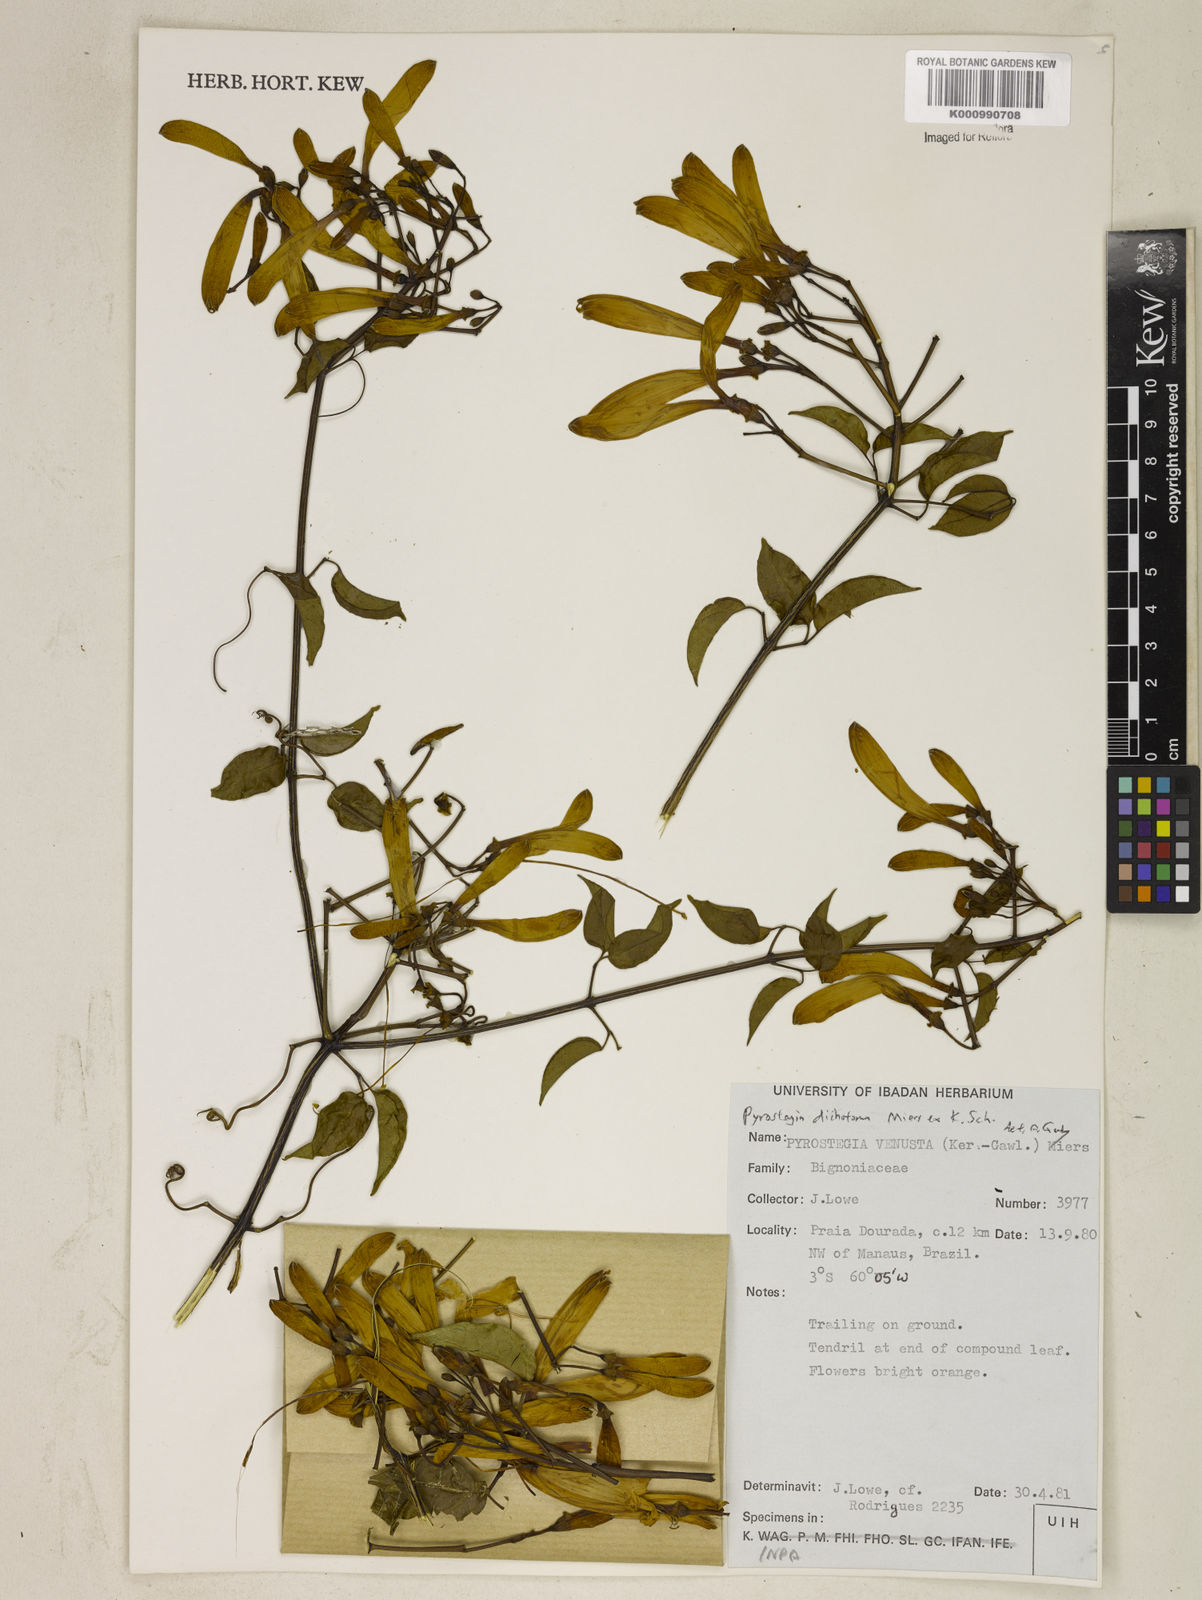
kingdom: Plantae
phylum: Tracheophyta
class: Magnoliopsida
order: Lamiales
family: Bignoniaceae
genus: Pyrostegia
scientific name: Pyrostegia
